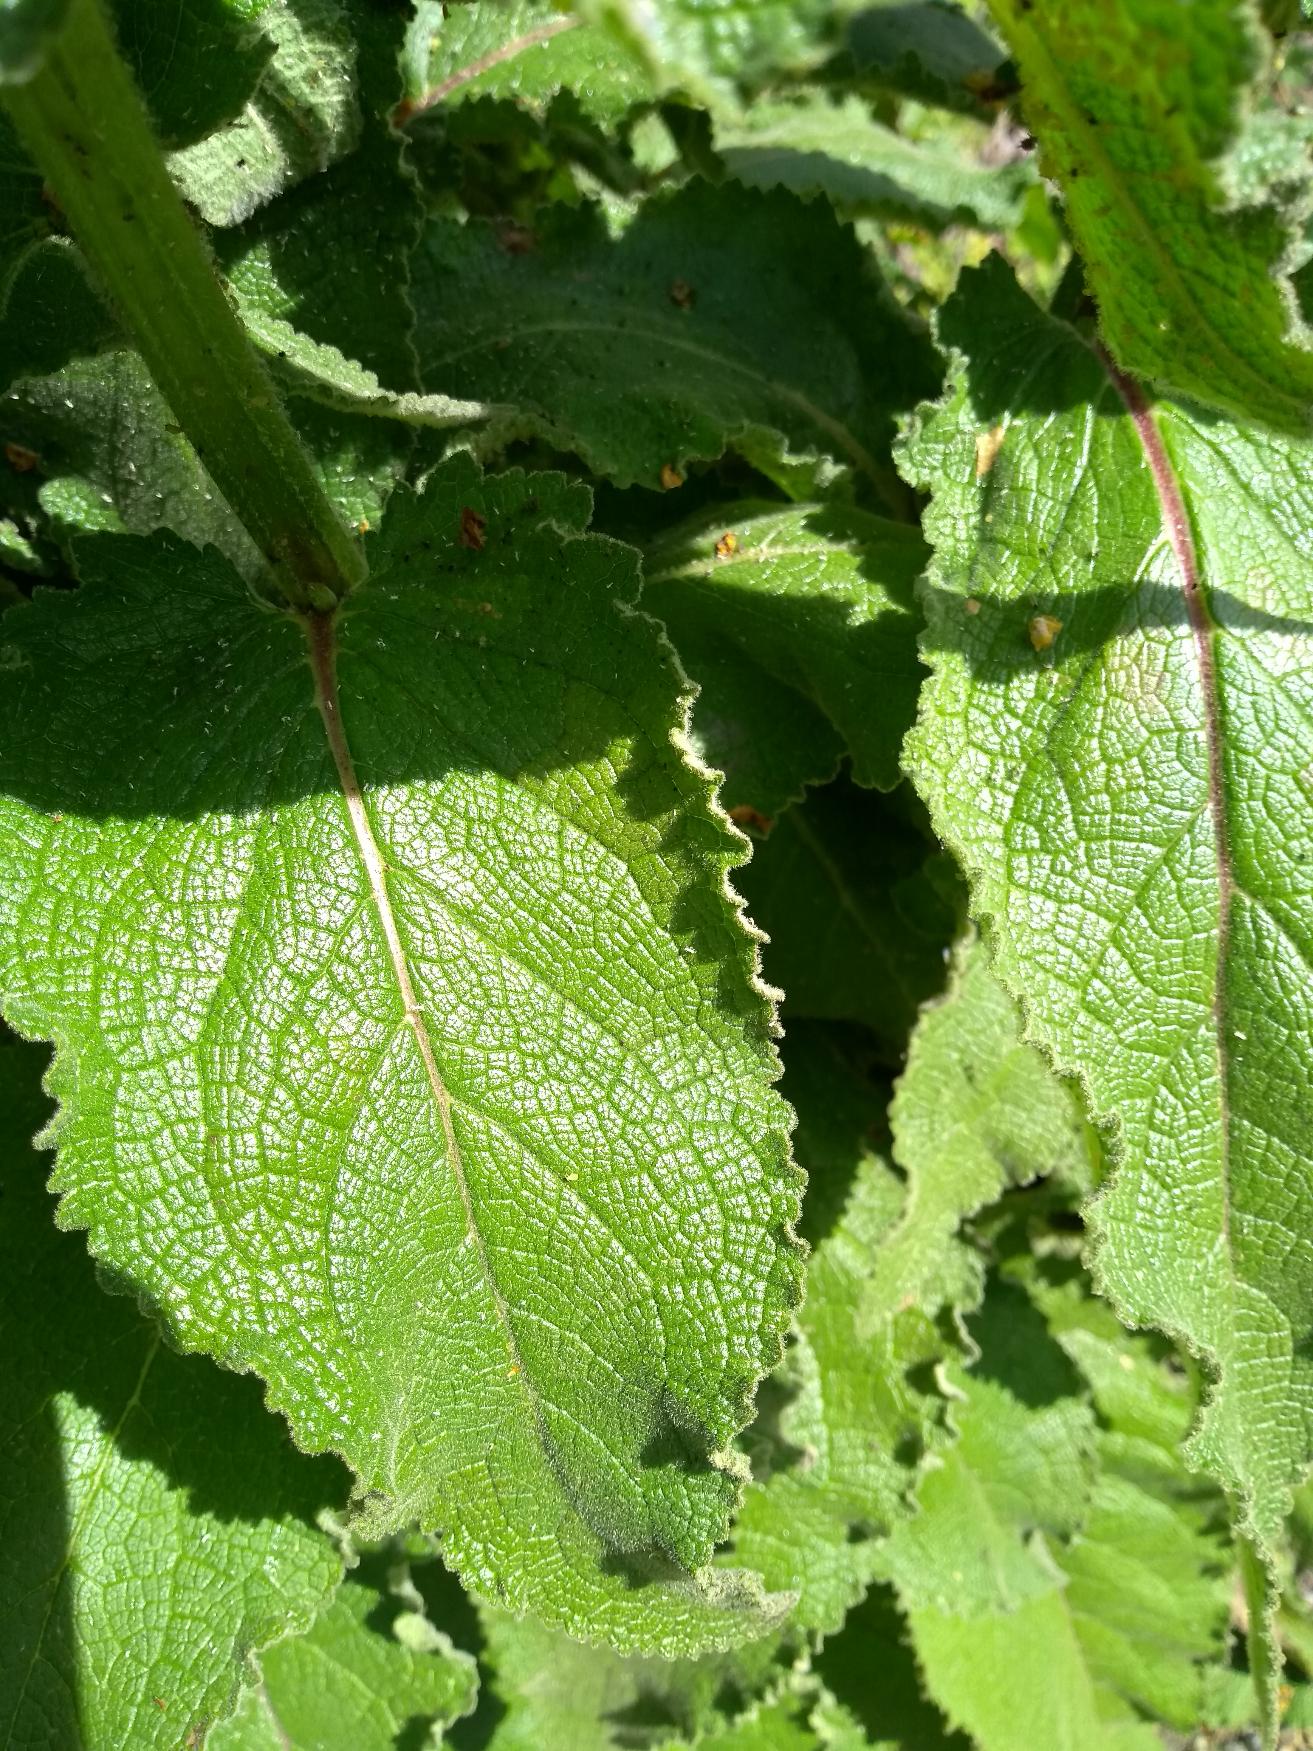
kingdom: Plantae
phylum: Tracheophyta
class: Magnoliopsida
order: Lamiales
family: Scrophulariaceae
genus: Verbascum
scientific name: Verbascum nigrum
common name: Mørk kongelys
